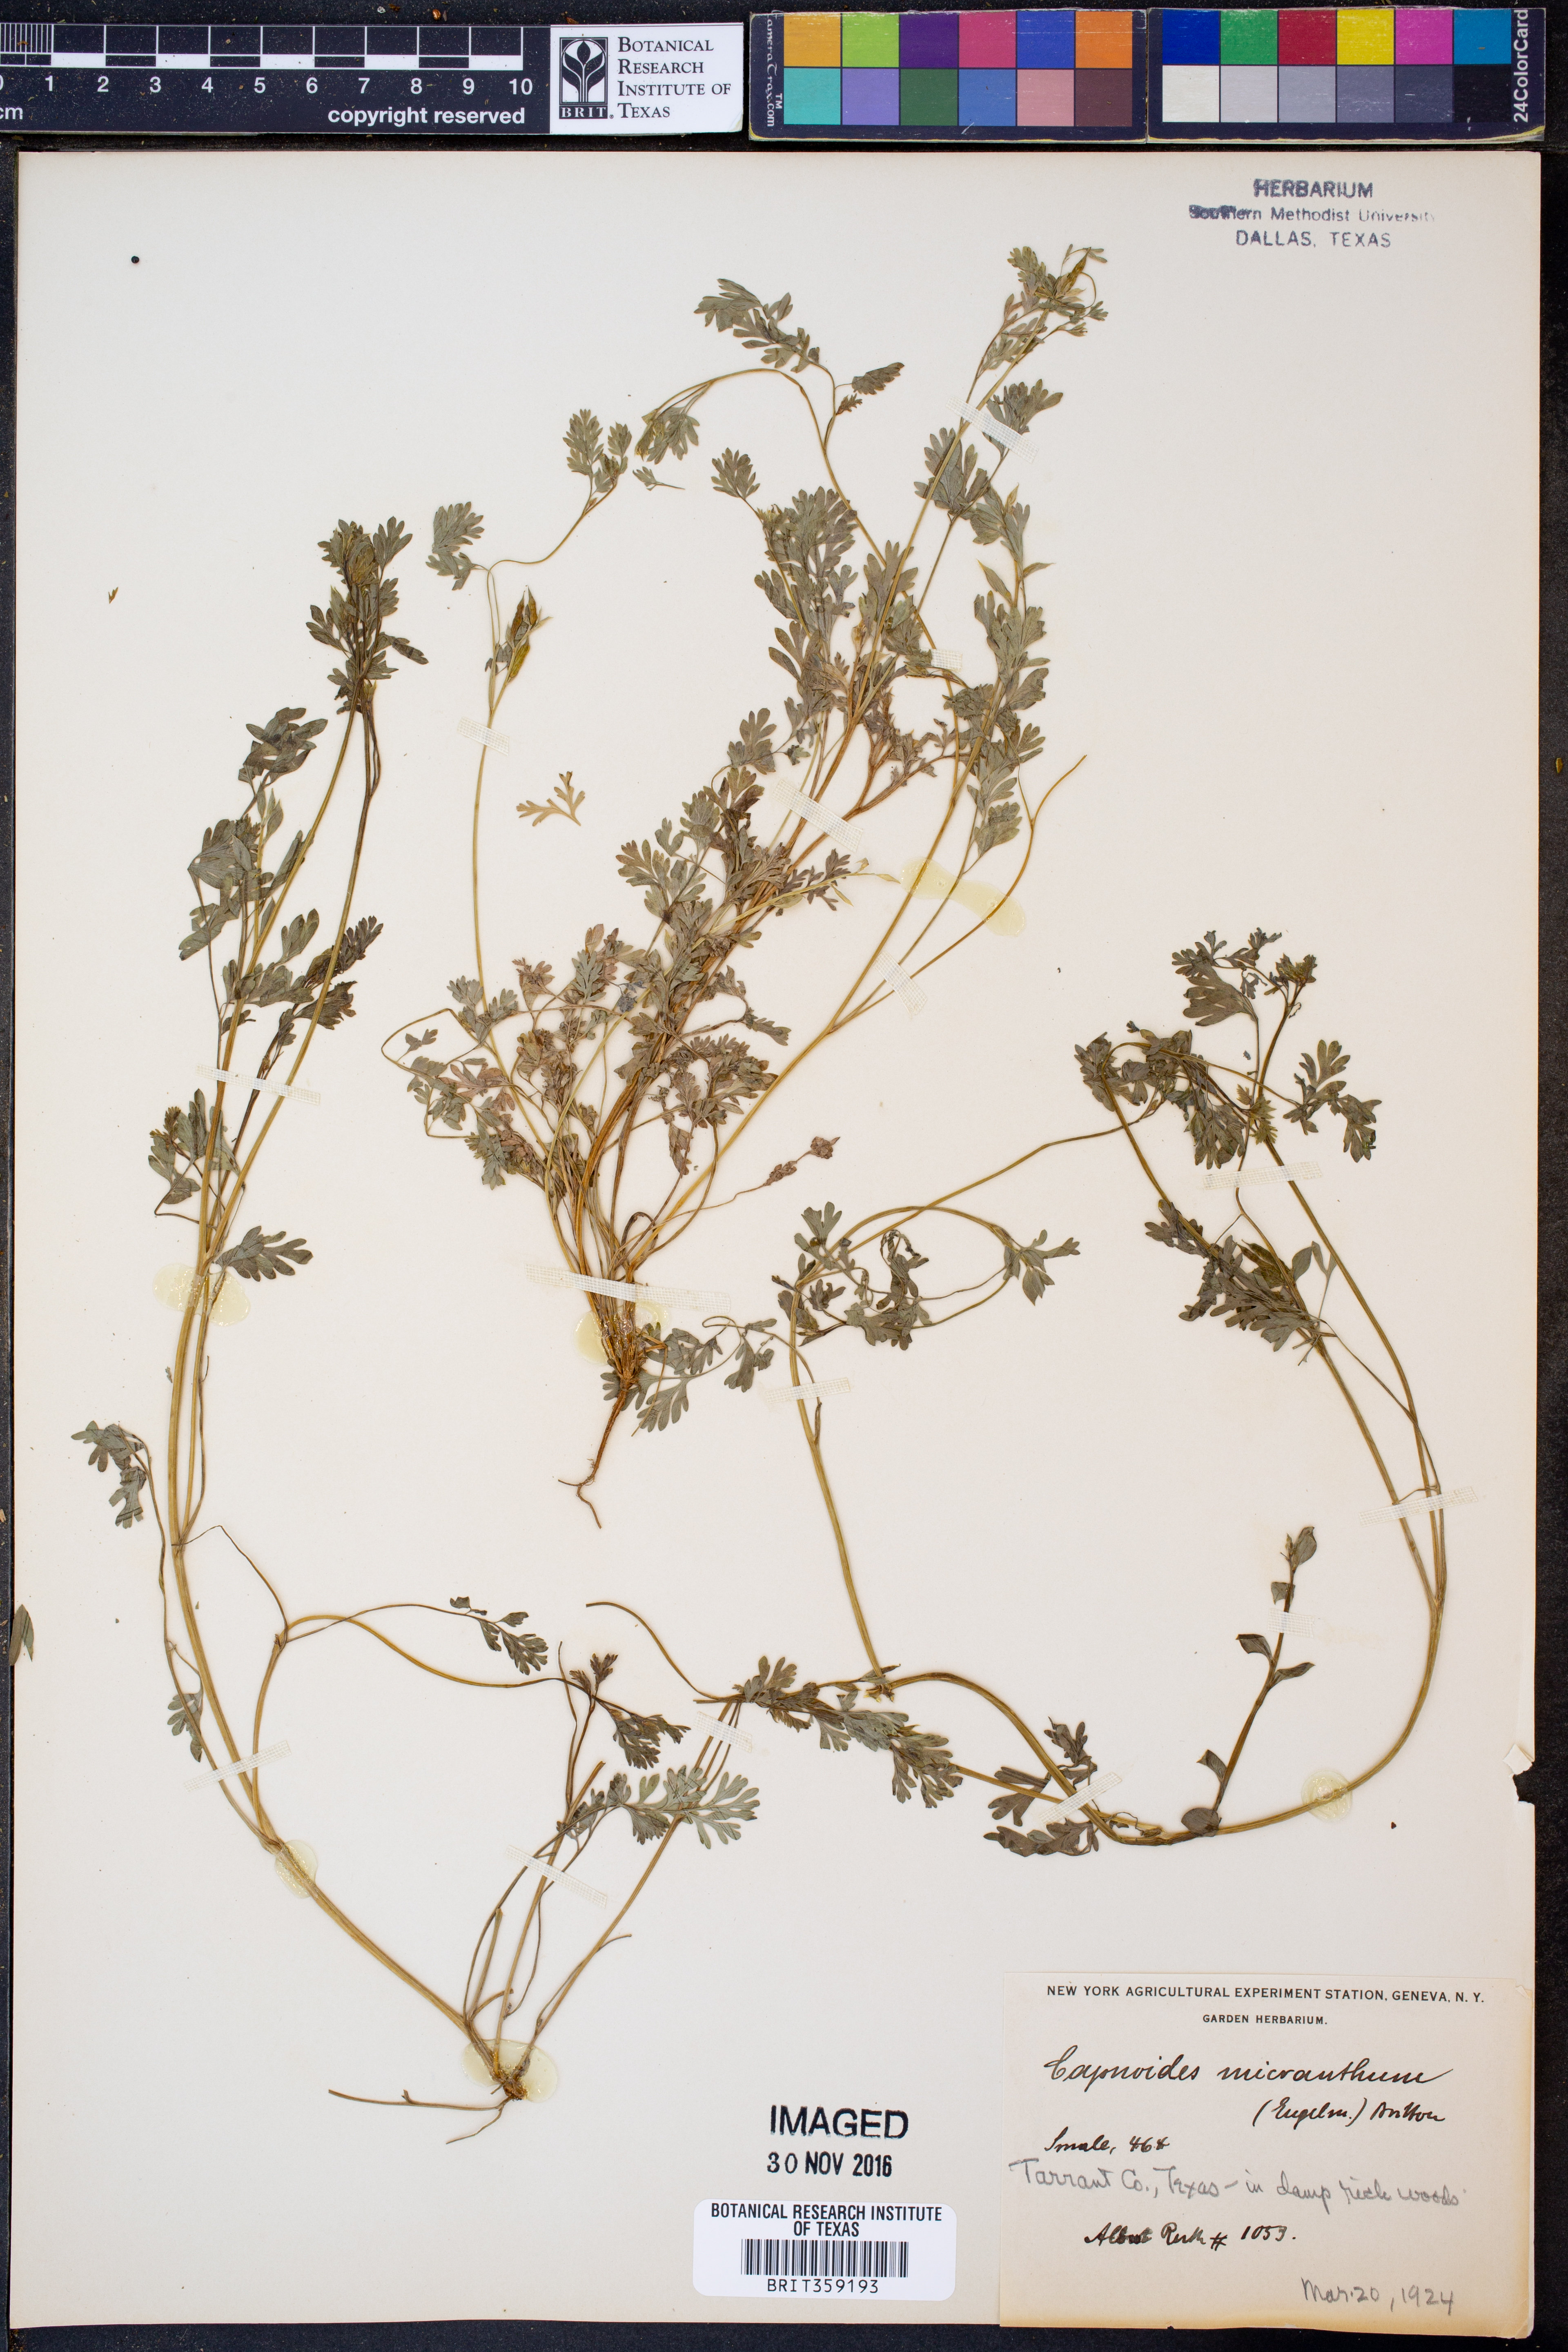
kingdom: Plantae
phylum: Tracheophyta
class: Magnoliopsida
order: Ranunculales
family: Papaveraceae
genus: Corydalis
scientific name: Corydalis micrantha
